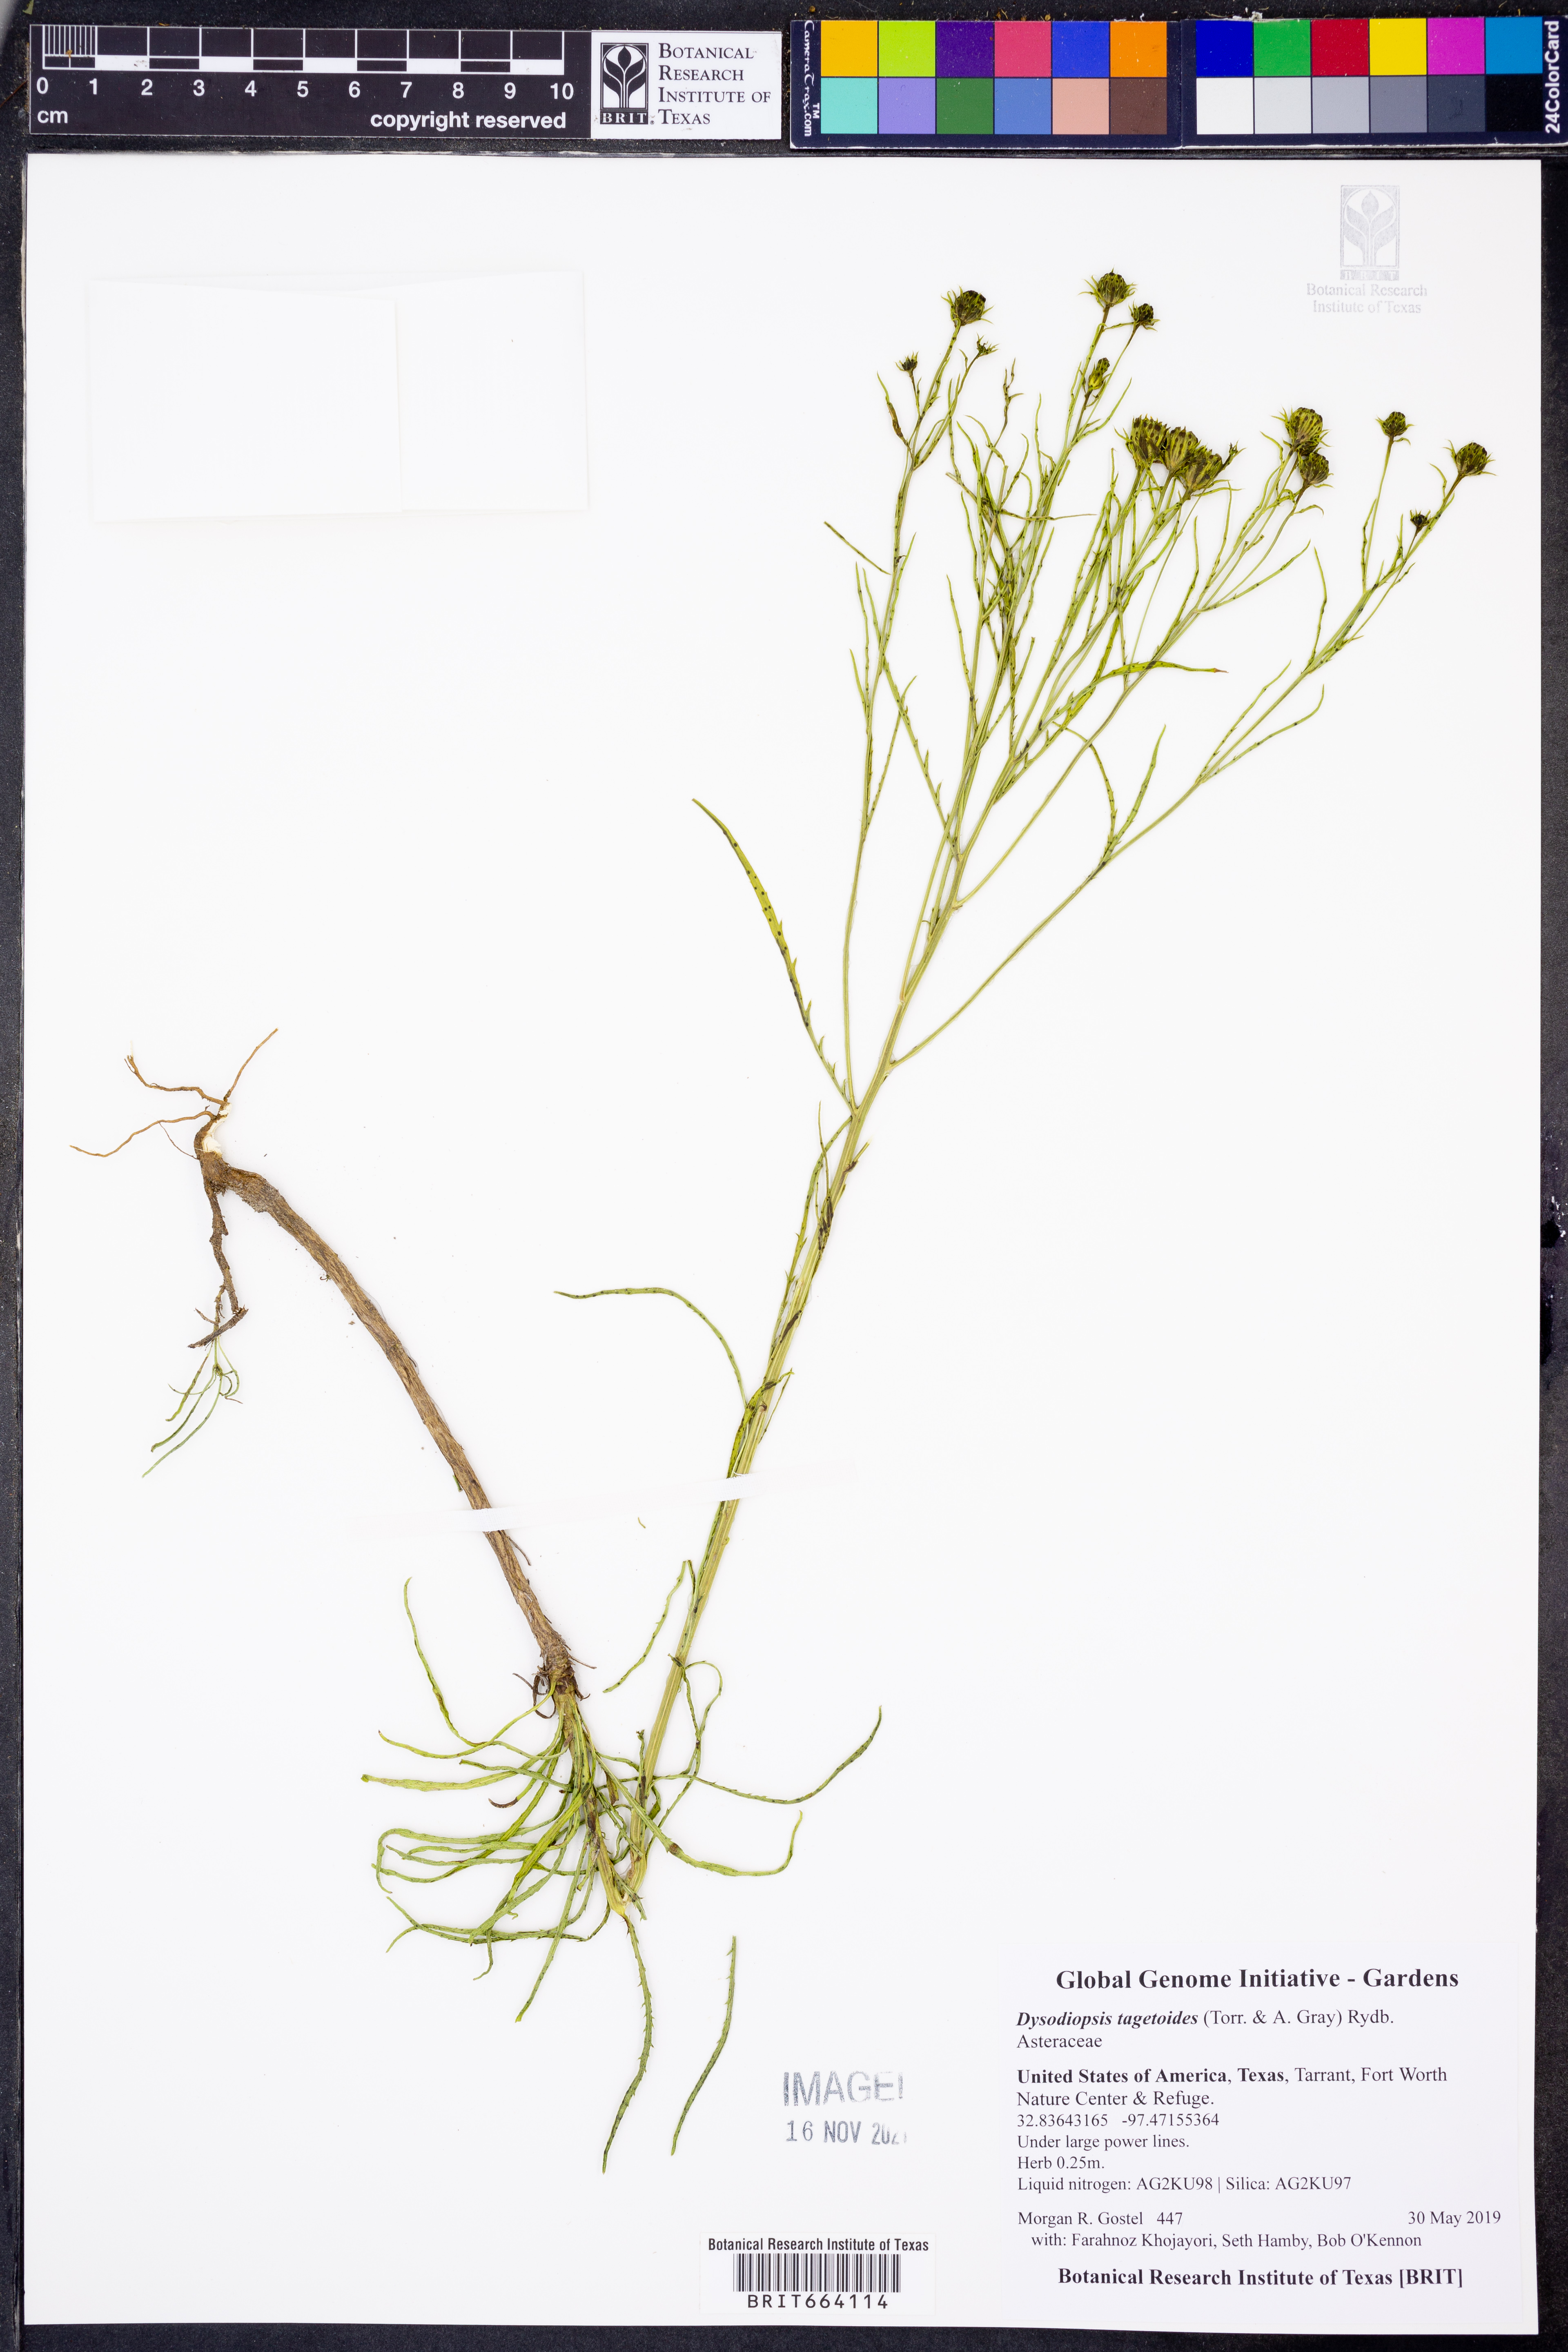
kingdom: Plantae
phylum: Tracheophyta
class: Magnoliopsida
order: Asterales
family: Asteraceae
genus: Dysodiopsis
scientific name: Dysodiopsis tagetoides
